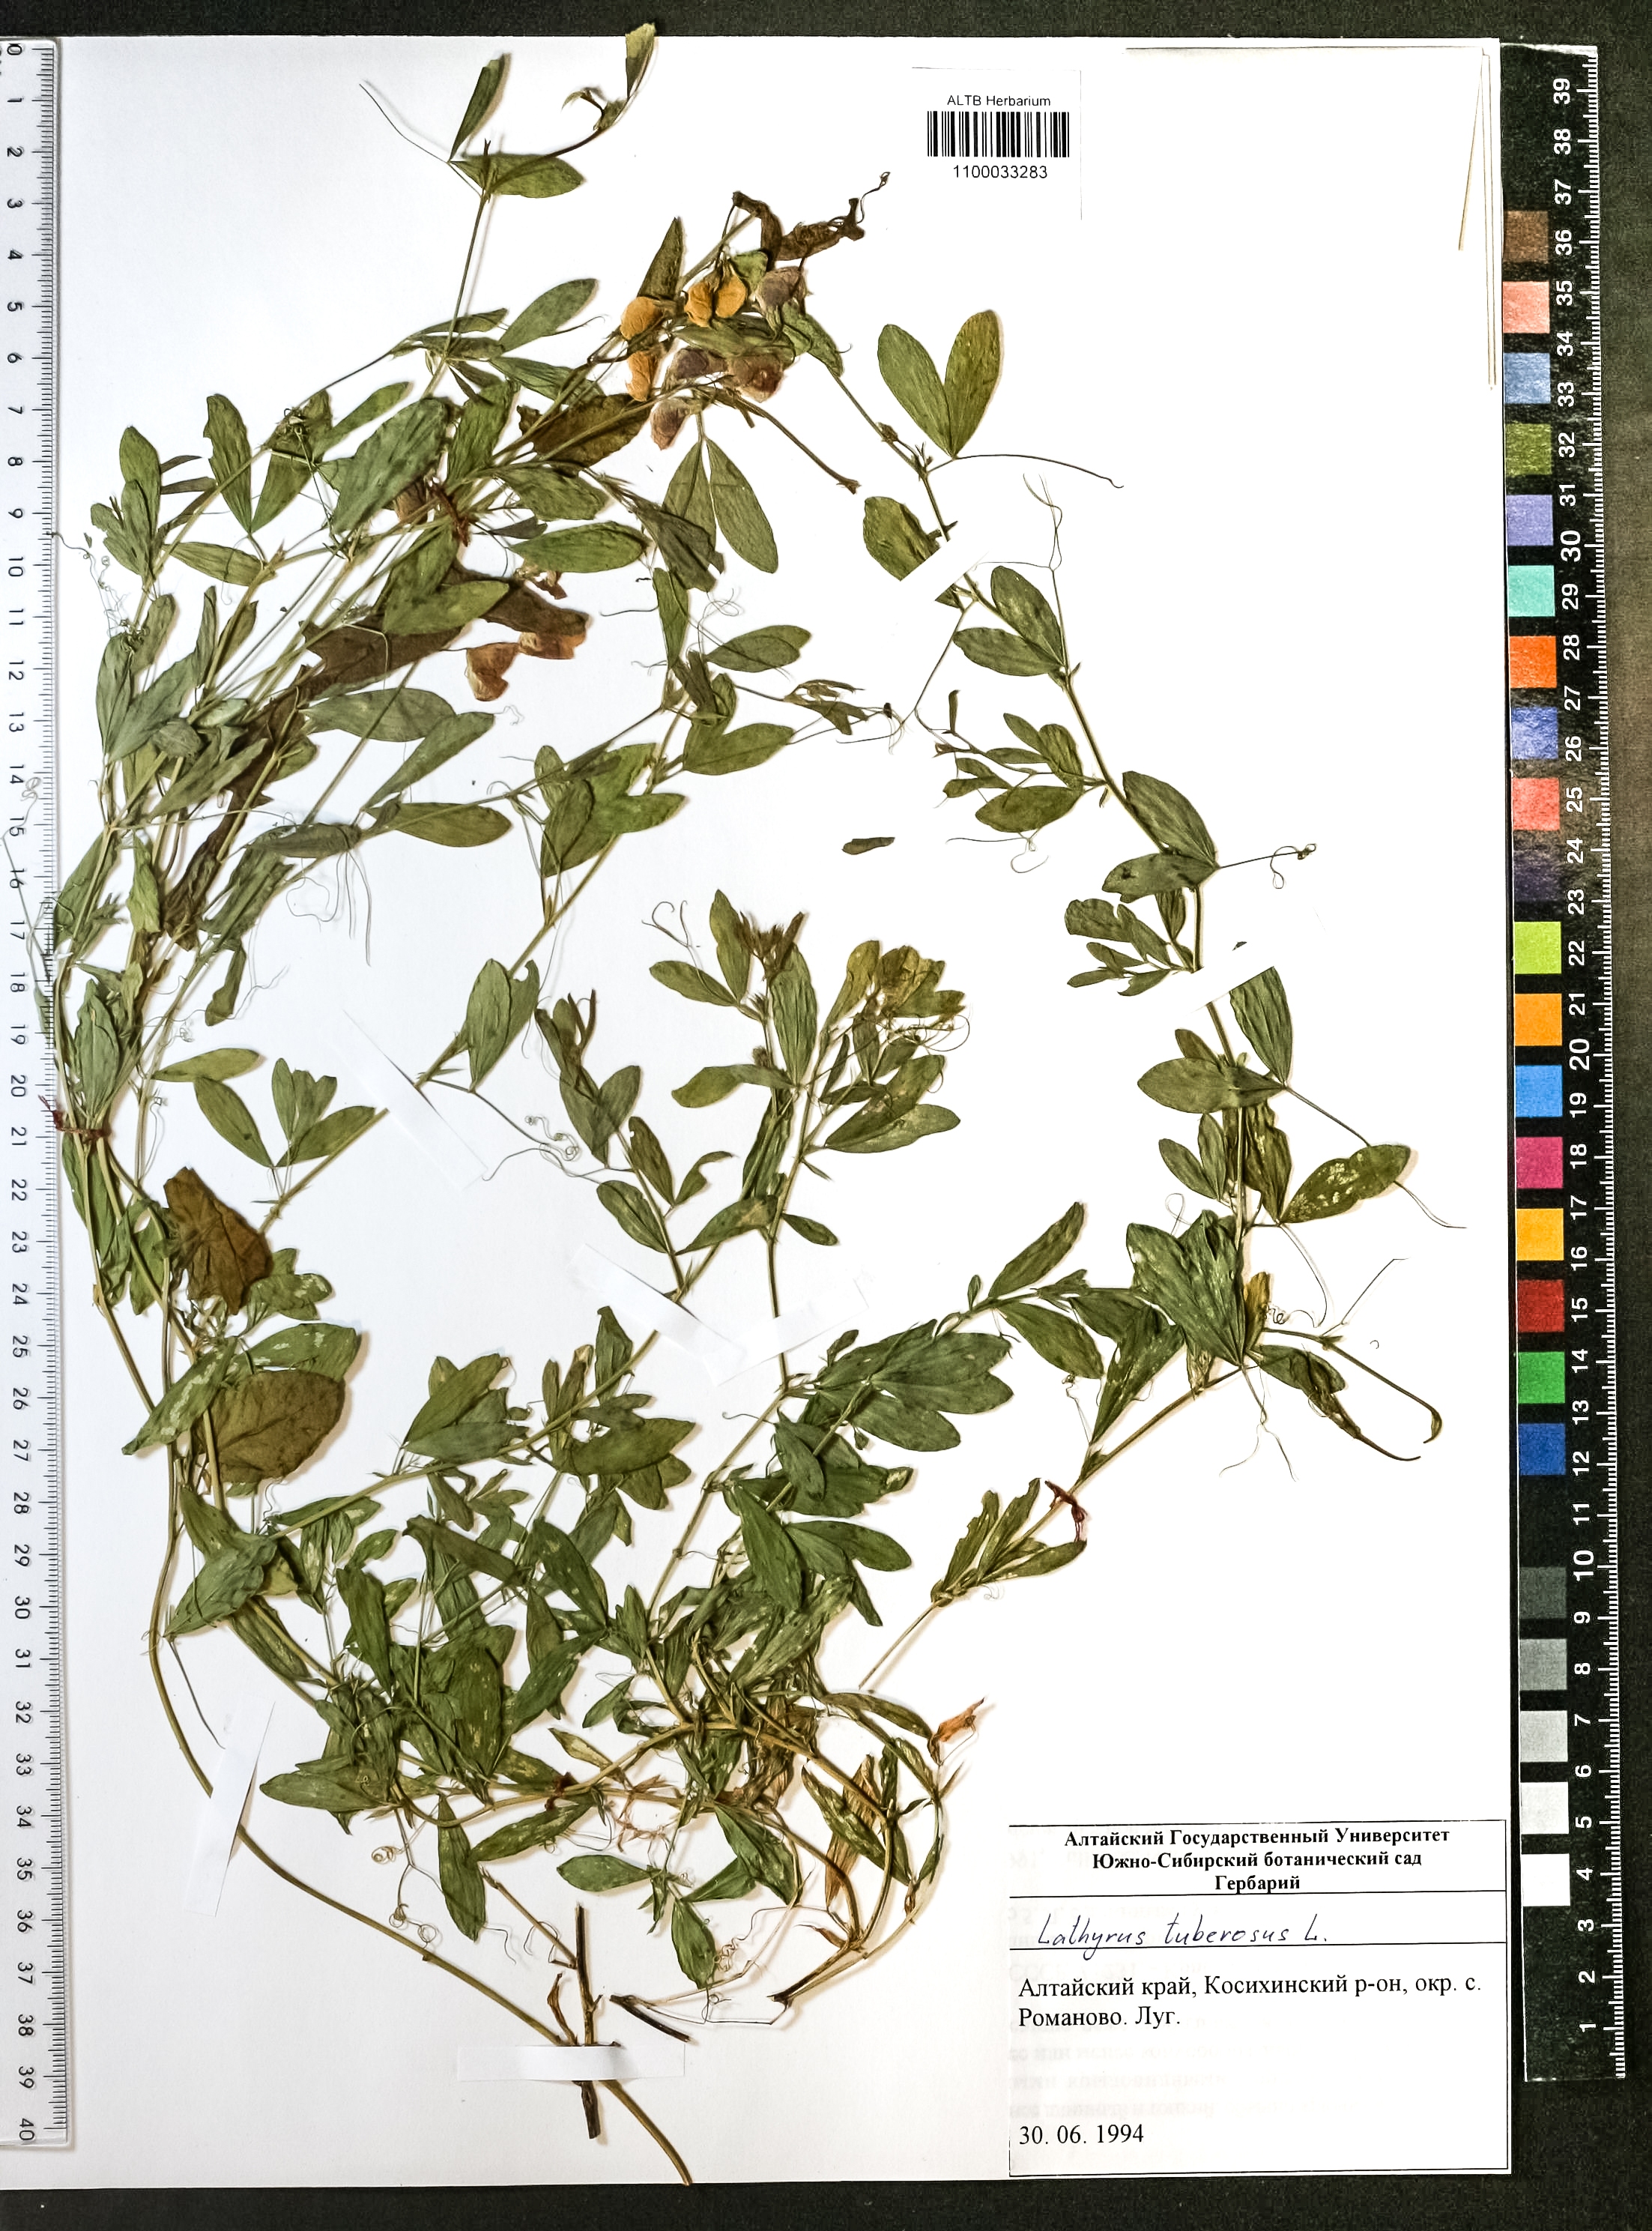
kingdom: Plantae
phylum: Tracheophyta
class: Magnoliopsida
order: Fabales
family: Fabaceae
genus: Lathyrus
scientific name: Lathyrus tuberosus
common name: Tuberous pea
